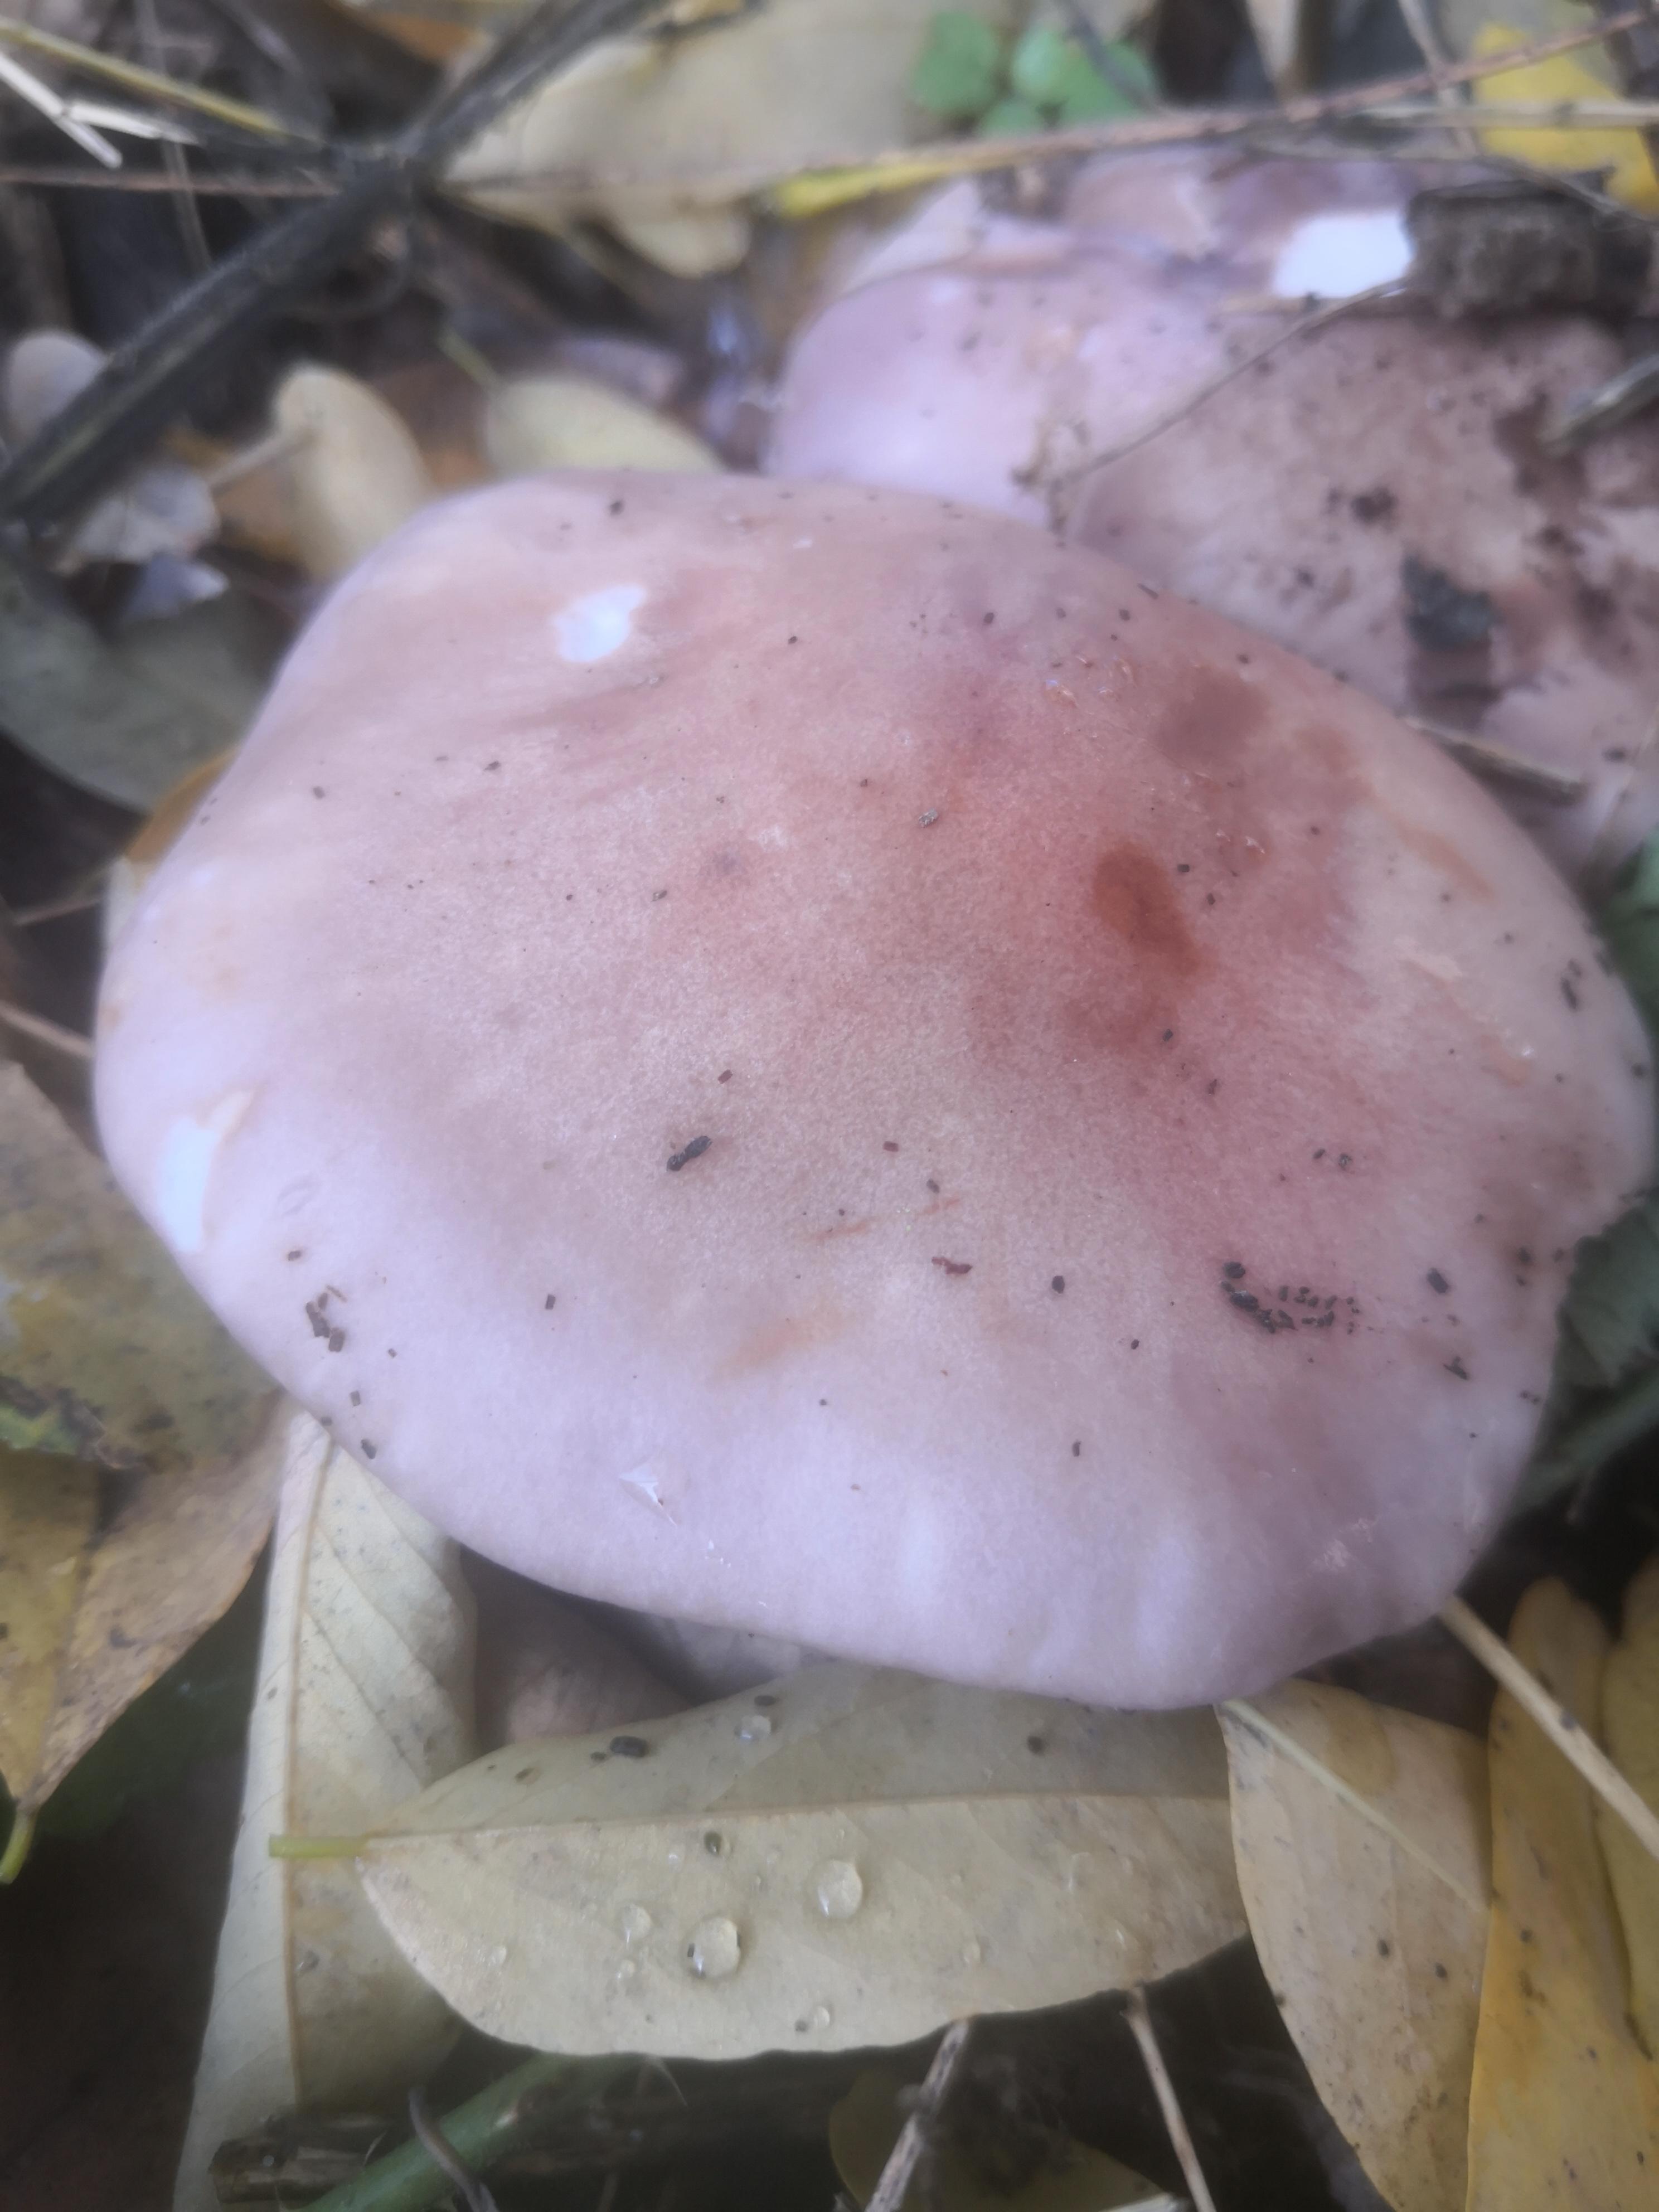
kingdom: Fungi
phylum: Basidiomycota
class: Agaricomycetes
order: Agaricales
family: Tricholomataceae
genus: Lepista
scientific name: Lepista nuda
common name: violet hekseringshat
